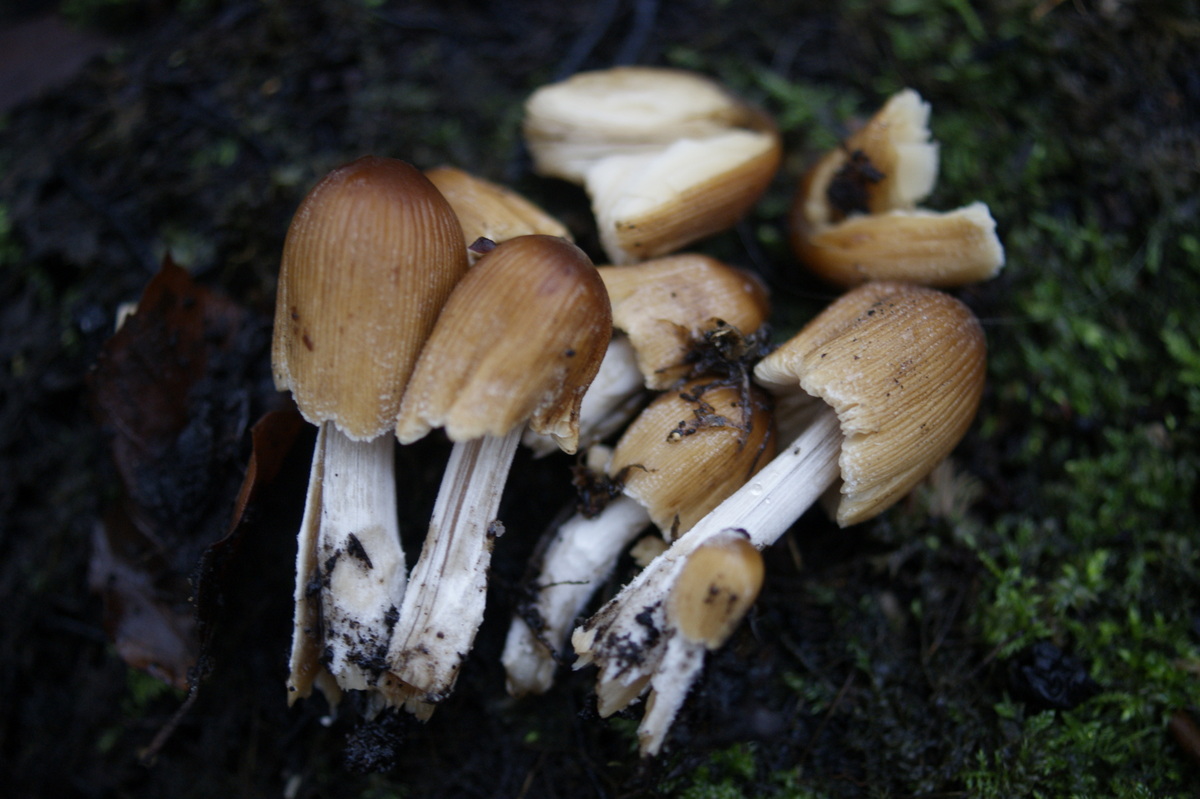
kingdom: Fungi
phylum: Basidiomycota
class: Agaricomycetes
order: Agaricales
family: Psathyrellaceae
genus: Coprinellus
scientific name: Coprinellus micaceus
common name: glimmer-blækhat
